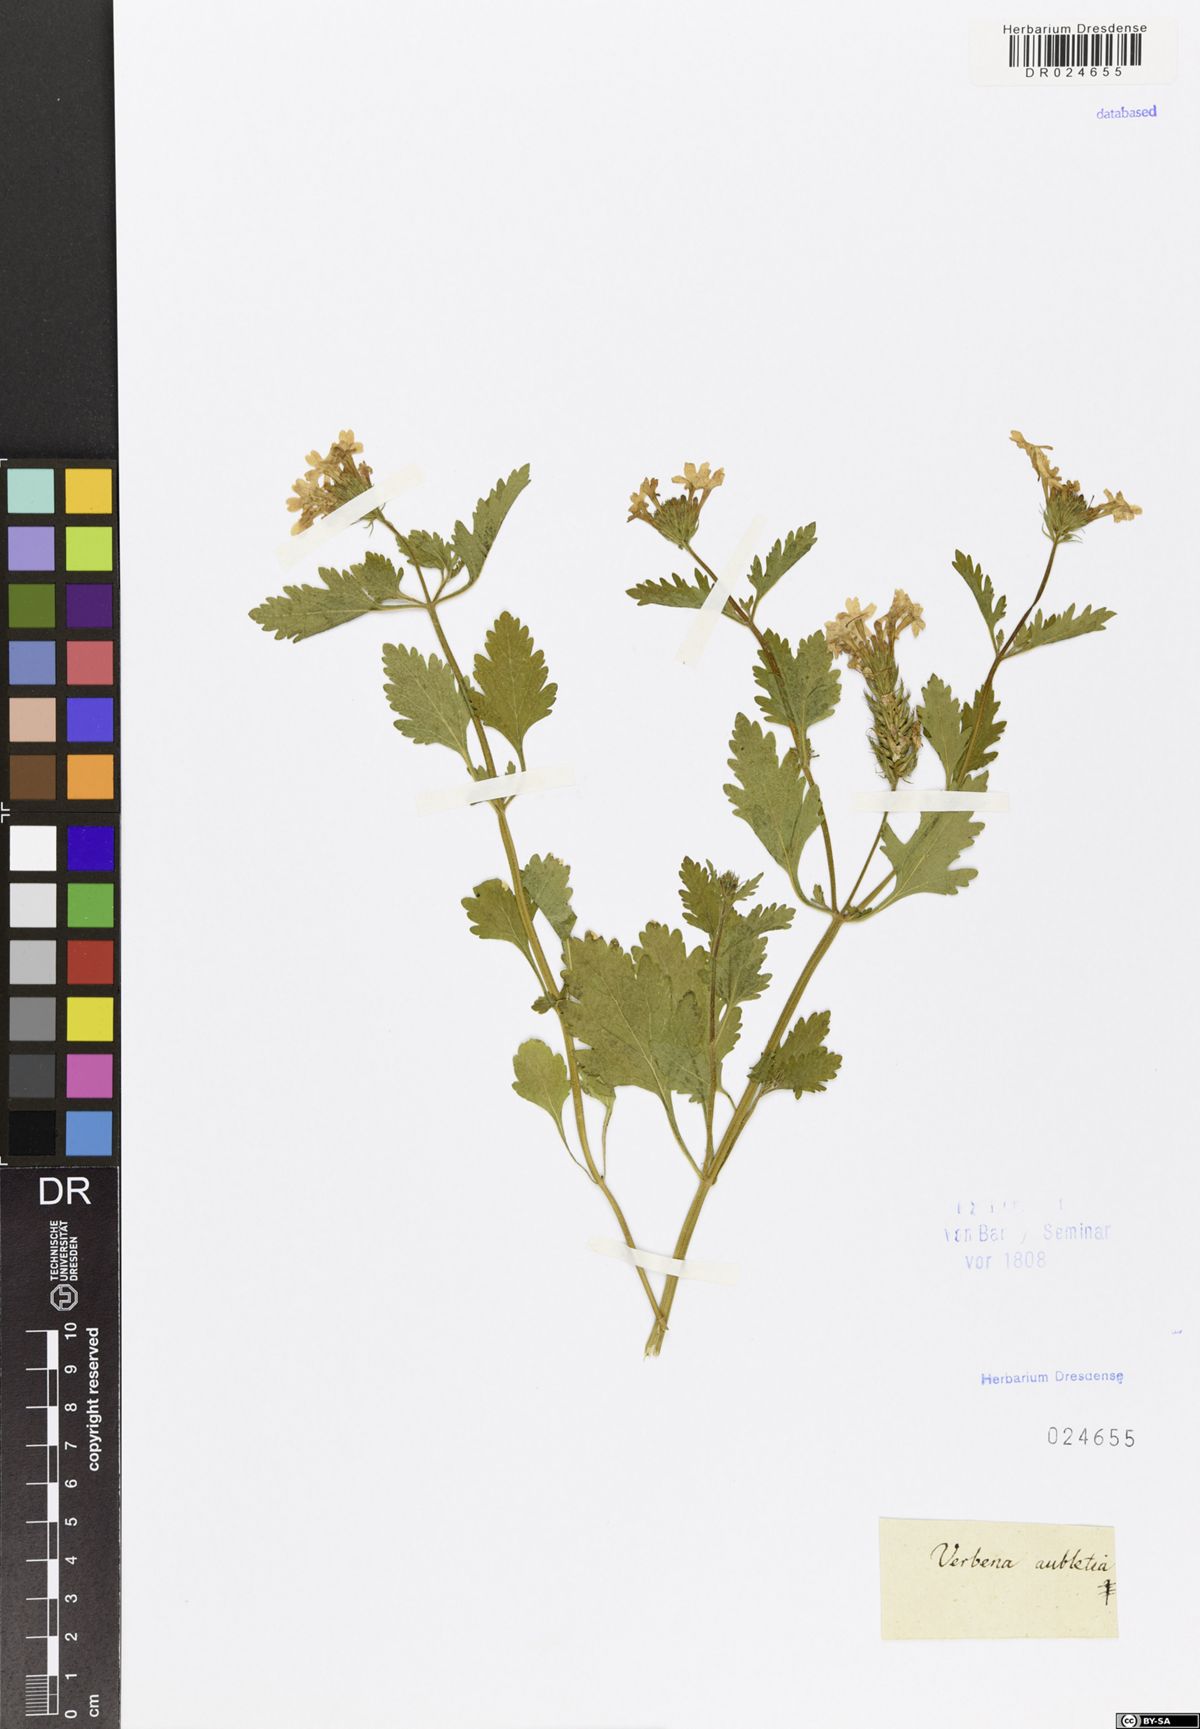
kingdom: Plantae
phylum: Tracheophyta
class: Magnoliopsida
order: Lamiales
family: Verbenaceae
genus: Verbena
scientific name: Verbena canadensis
